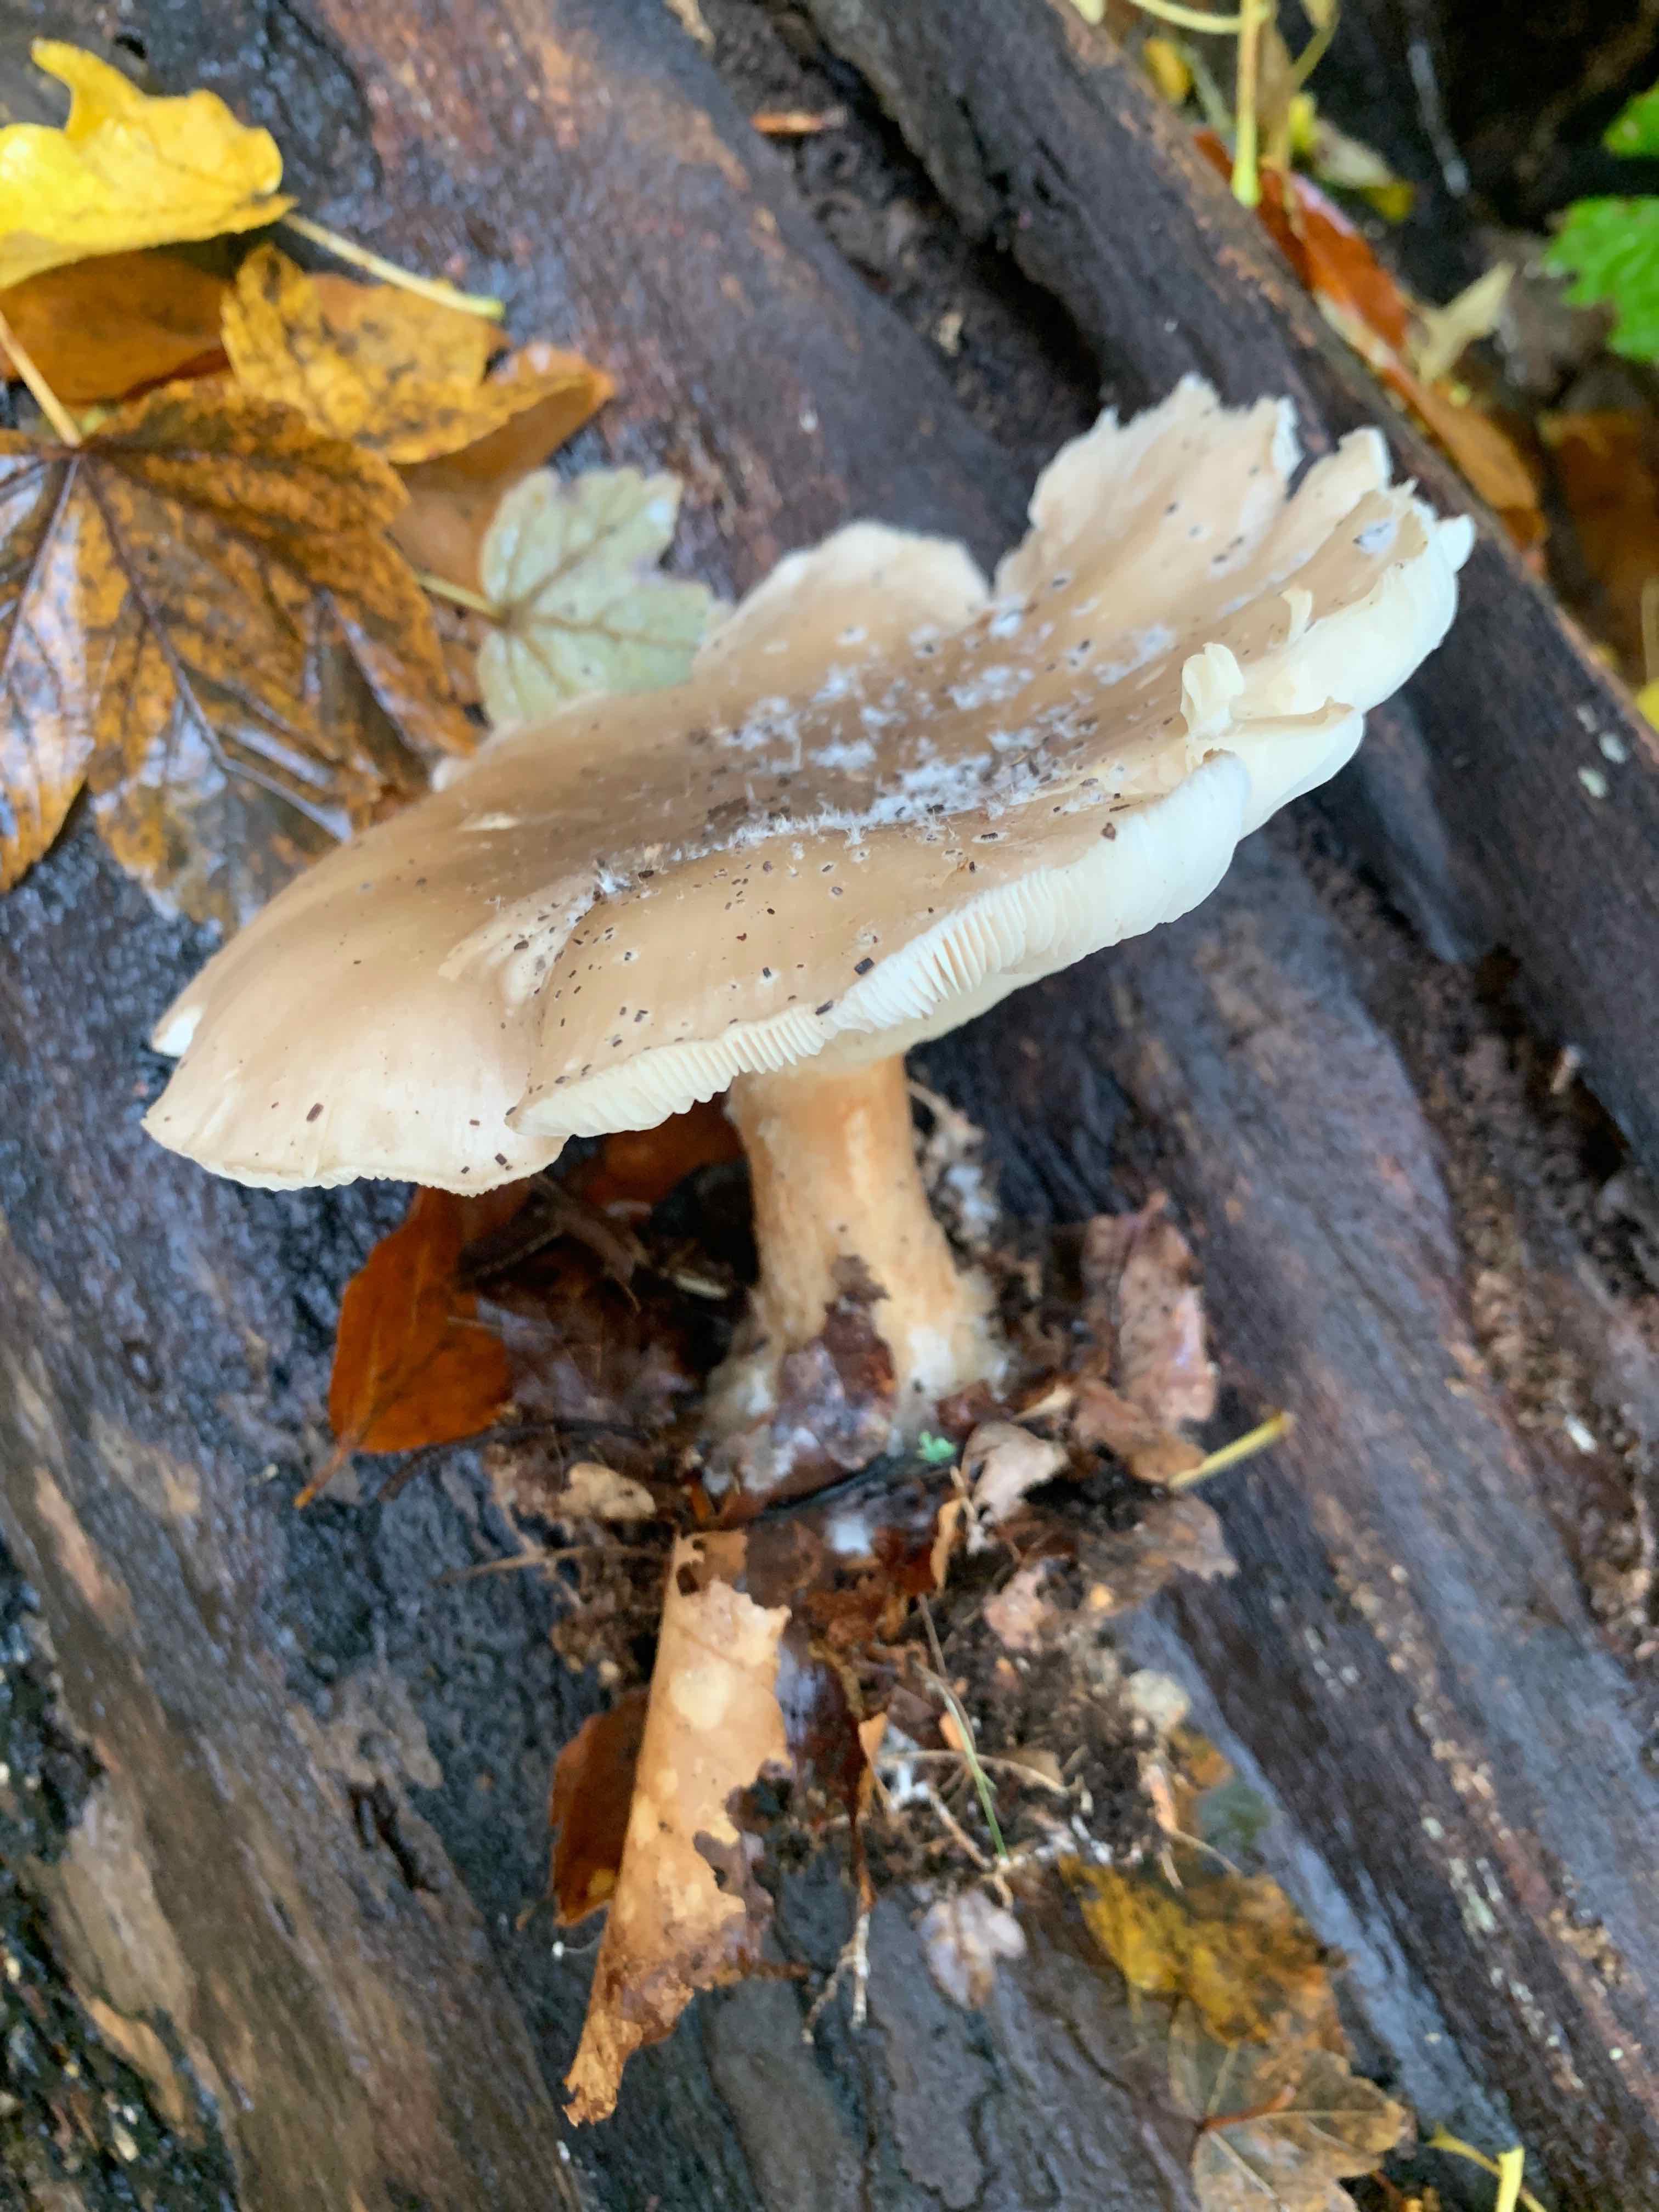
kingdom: Fungi
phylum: Basidiomycota
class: Agaricomycetes
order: Agaricales
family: Tricholomataceae
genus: Clitocybe
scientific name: Clitocybe nebularis
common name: tåge-tragthat
